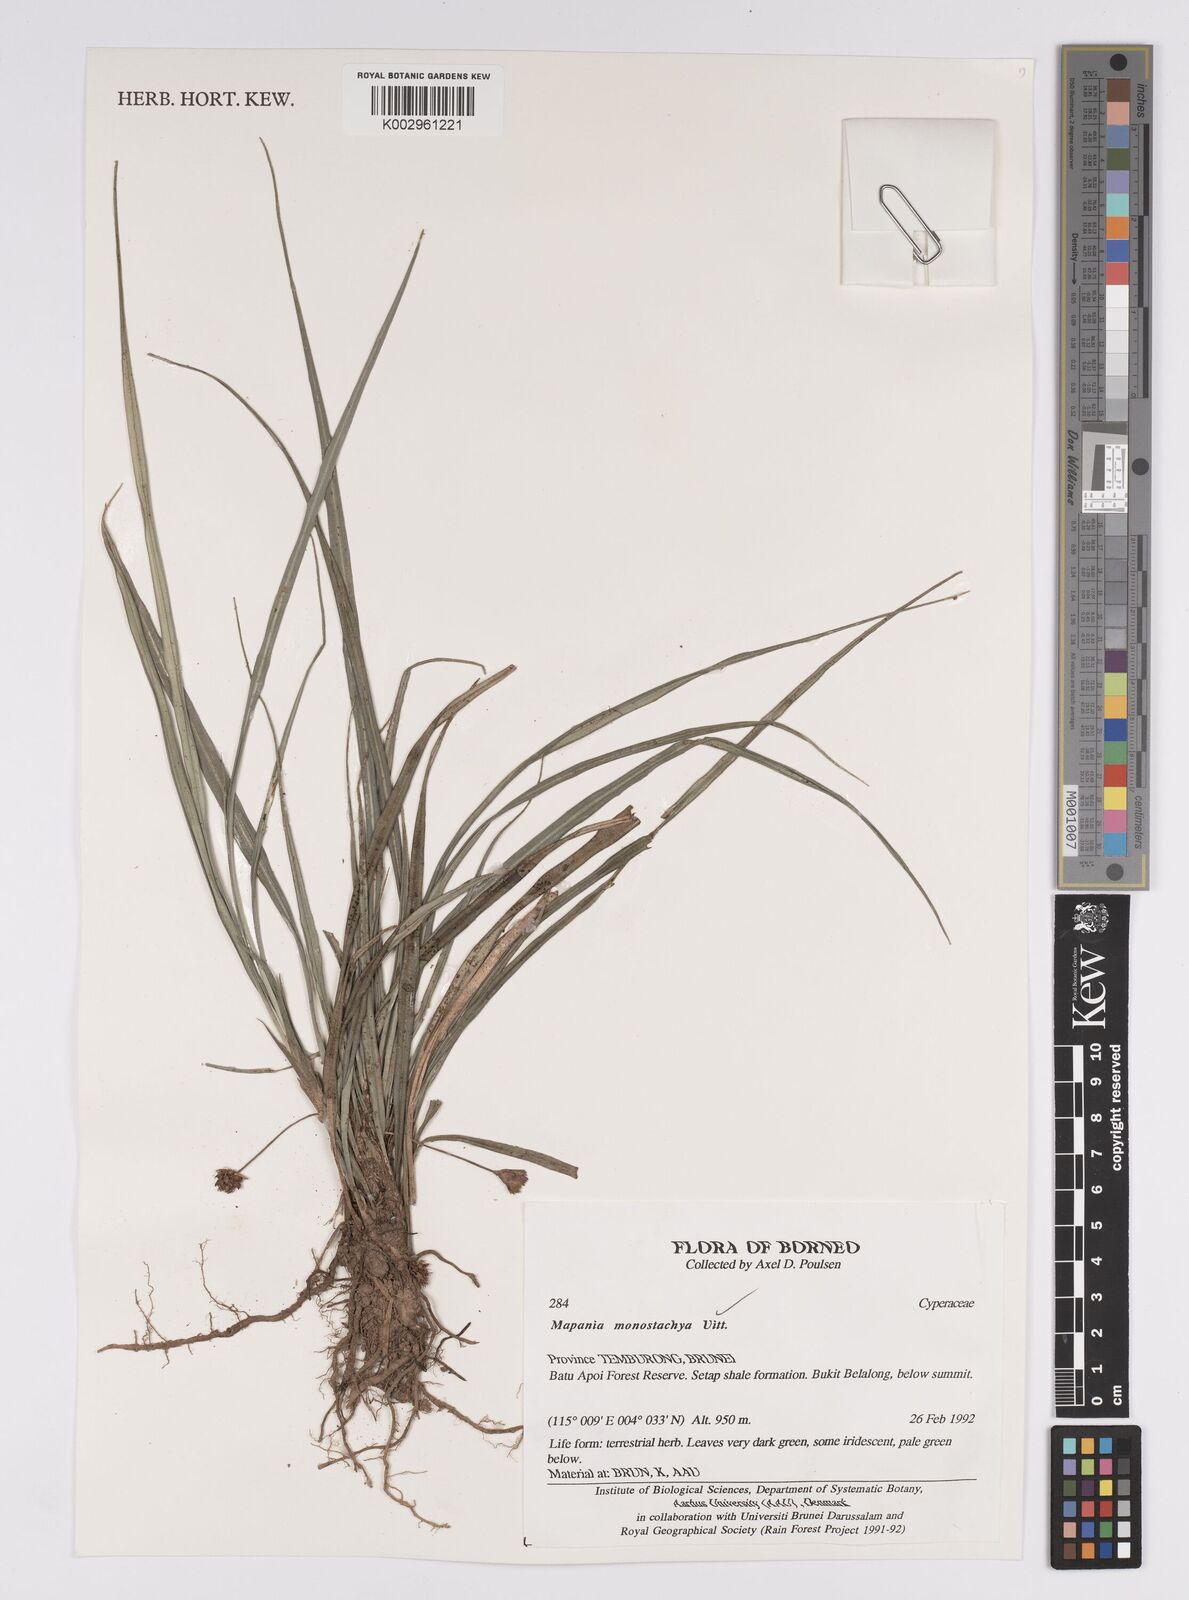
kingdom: Plantae
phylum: Tracheophyta
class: Liliopsida
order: Poales
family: Cyperaceae
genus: Mapania
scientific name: Mapania monostachya
